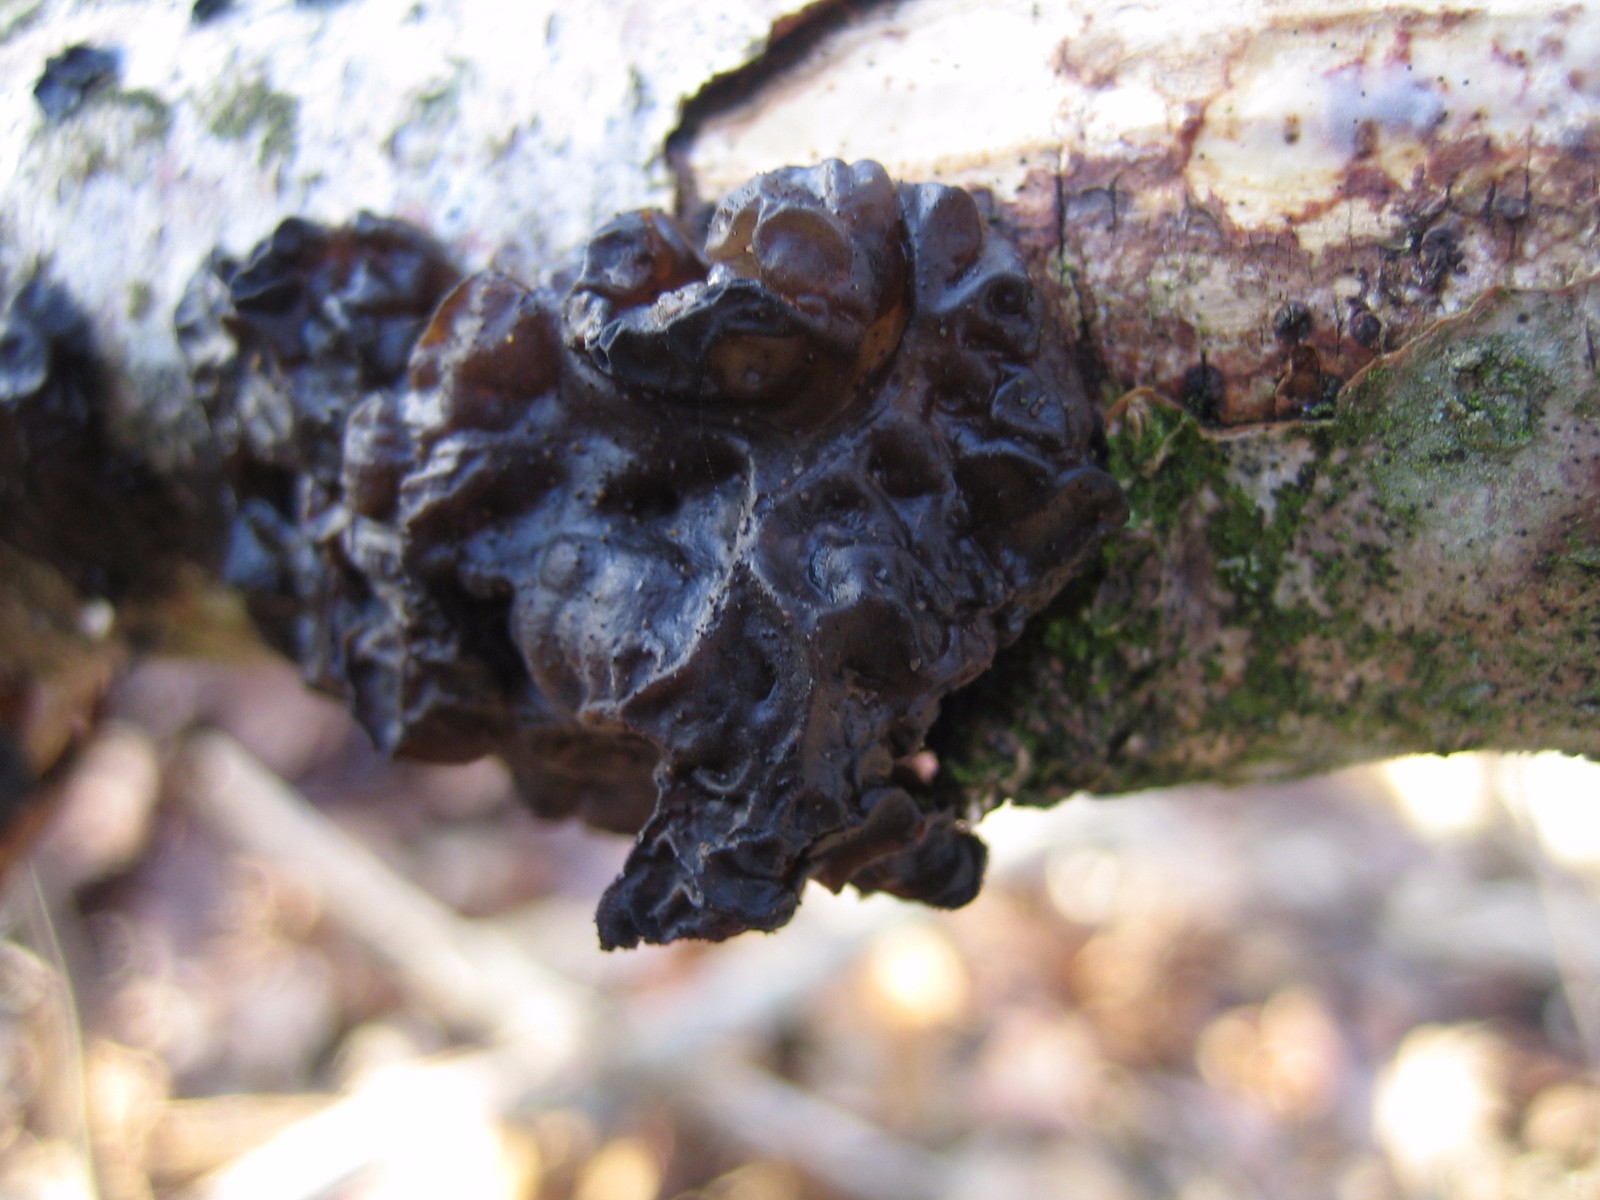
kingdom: Fungi
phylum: Basidiomycota
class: Agaricomycetes
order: Auriculariales
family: Auriculariaceae
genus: Exidia
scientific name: Exidia glandulosa
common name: ege-bævretop
